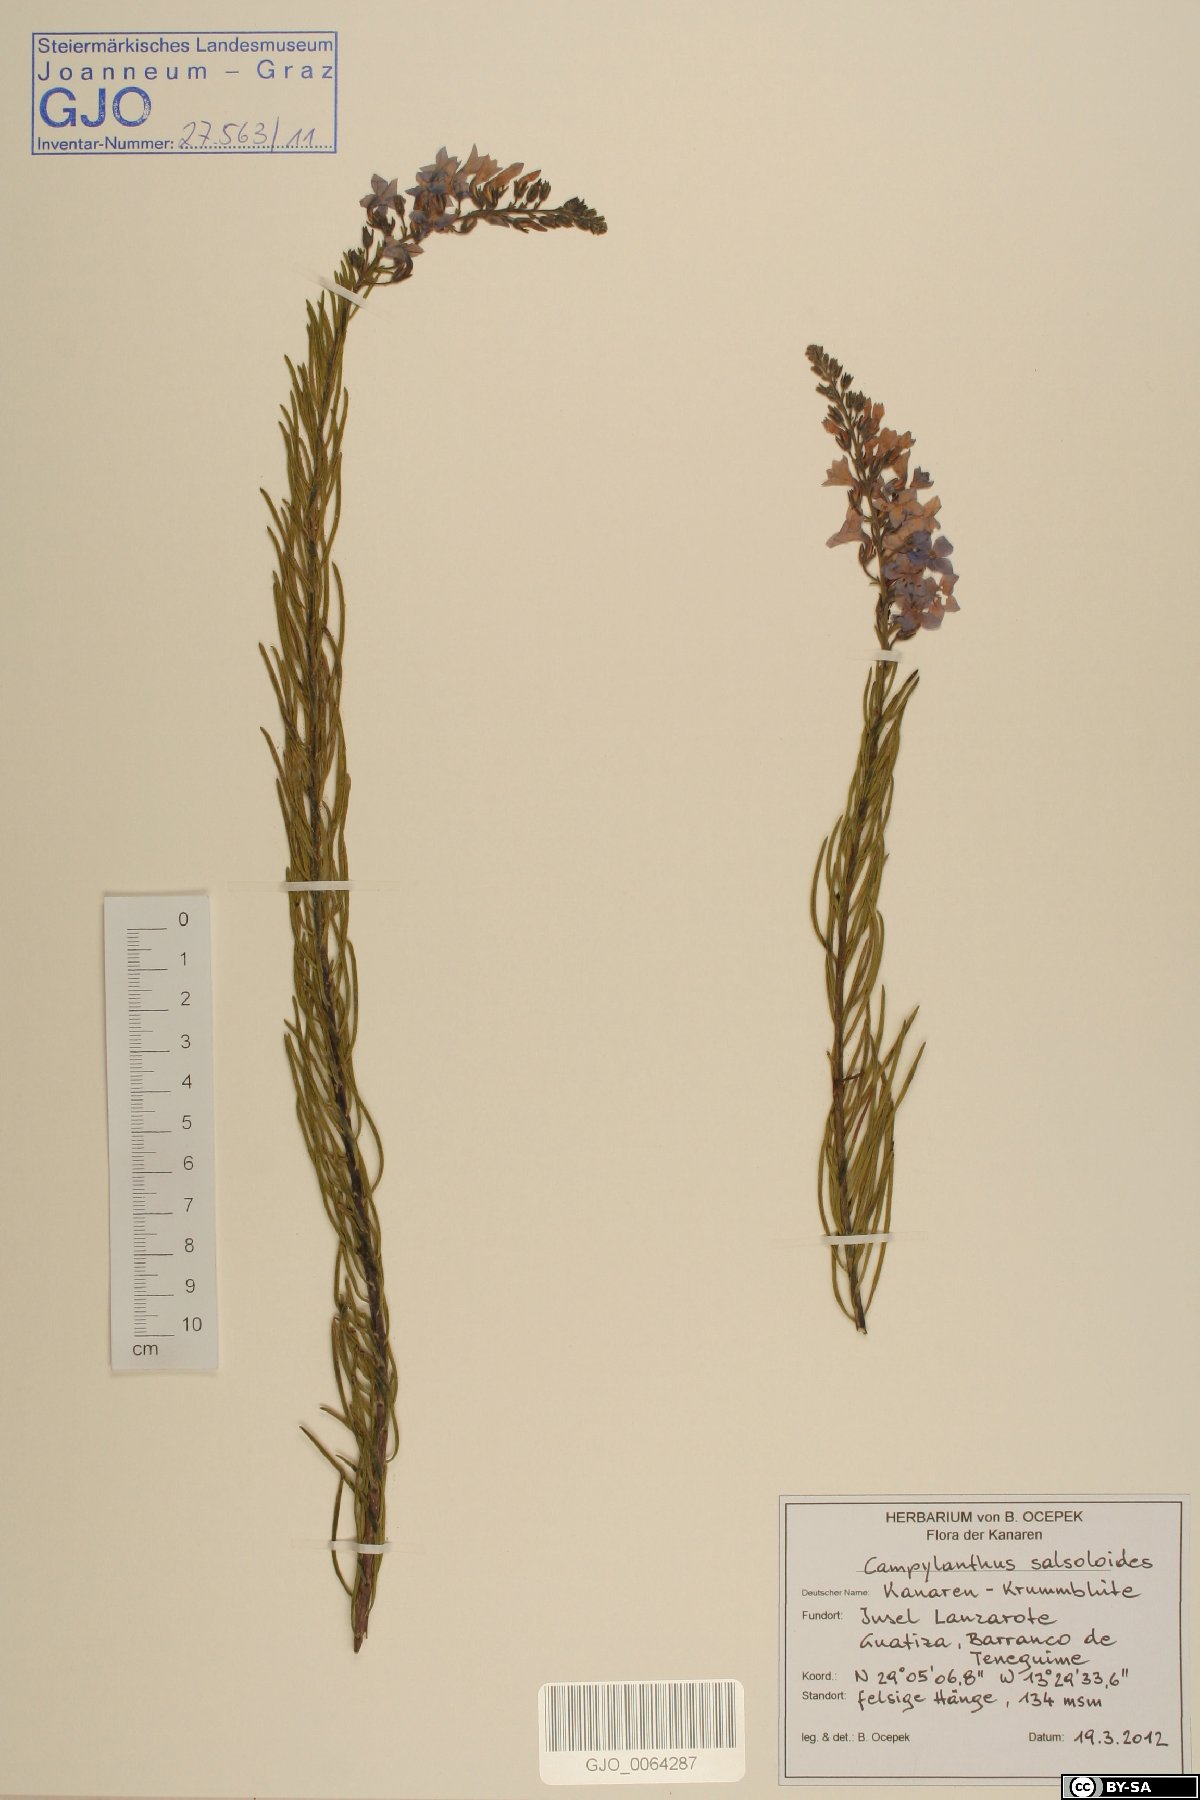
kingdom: Plantae
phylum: Tracheophyta
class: Magnoliopsida
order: Lamiales
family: Plantaginaceae
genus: Campylanthus
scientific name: Campylanthus salsoloides
